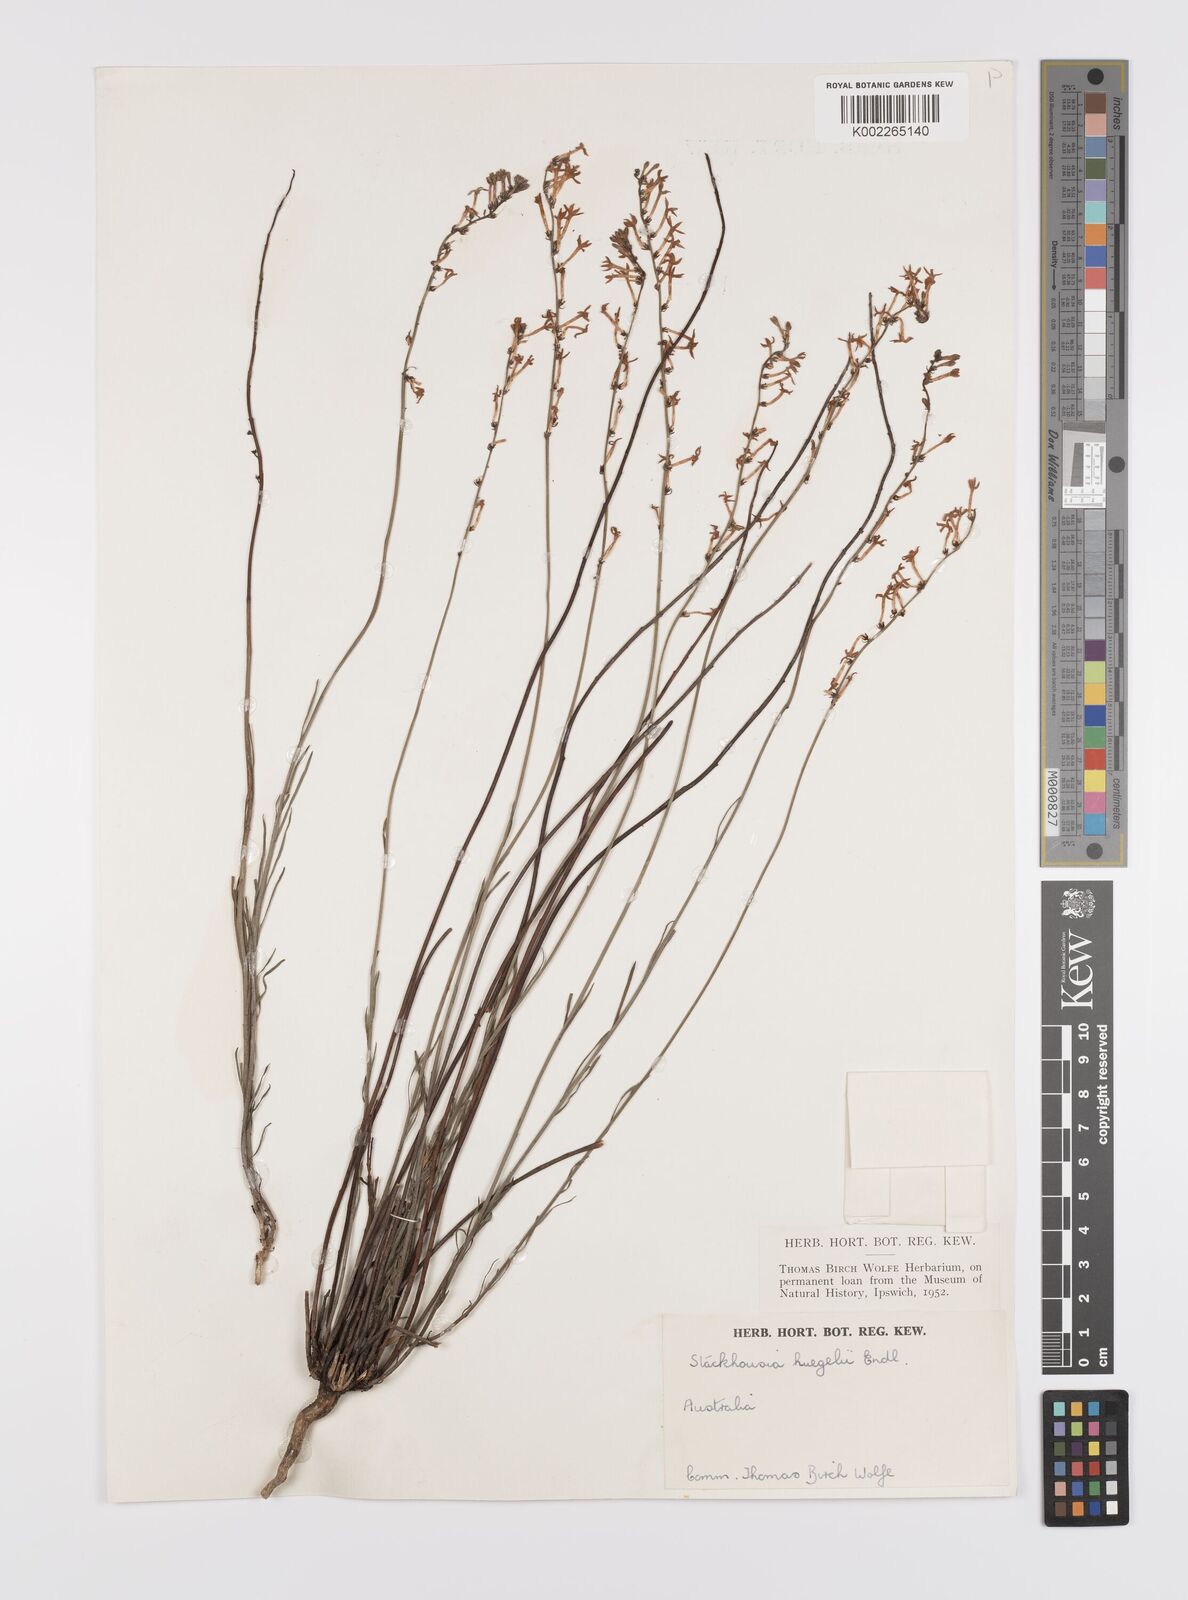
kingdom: Plantae
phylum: Tracheophyta
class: Magnoliopsida
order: Celastrales
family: Celastraceae
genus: Stackhousia
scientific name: Stackhousia monogyna
